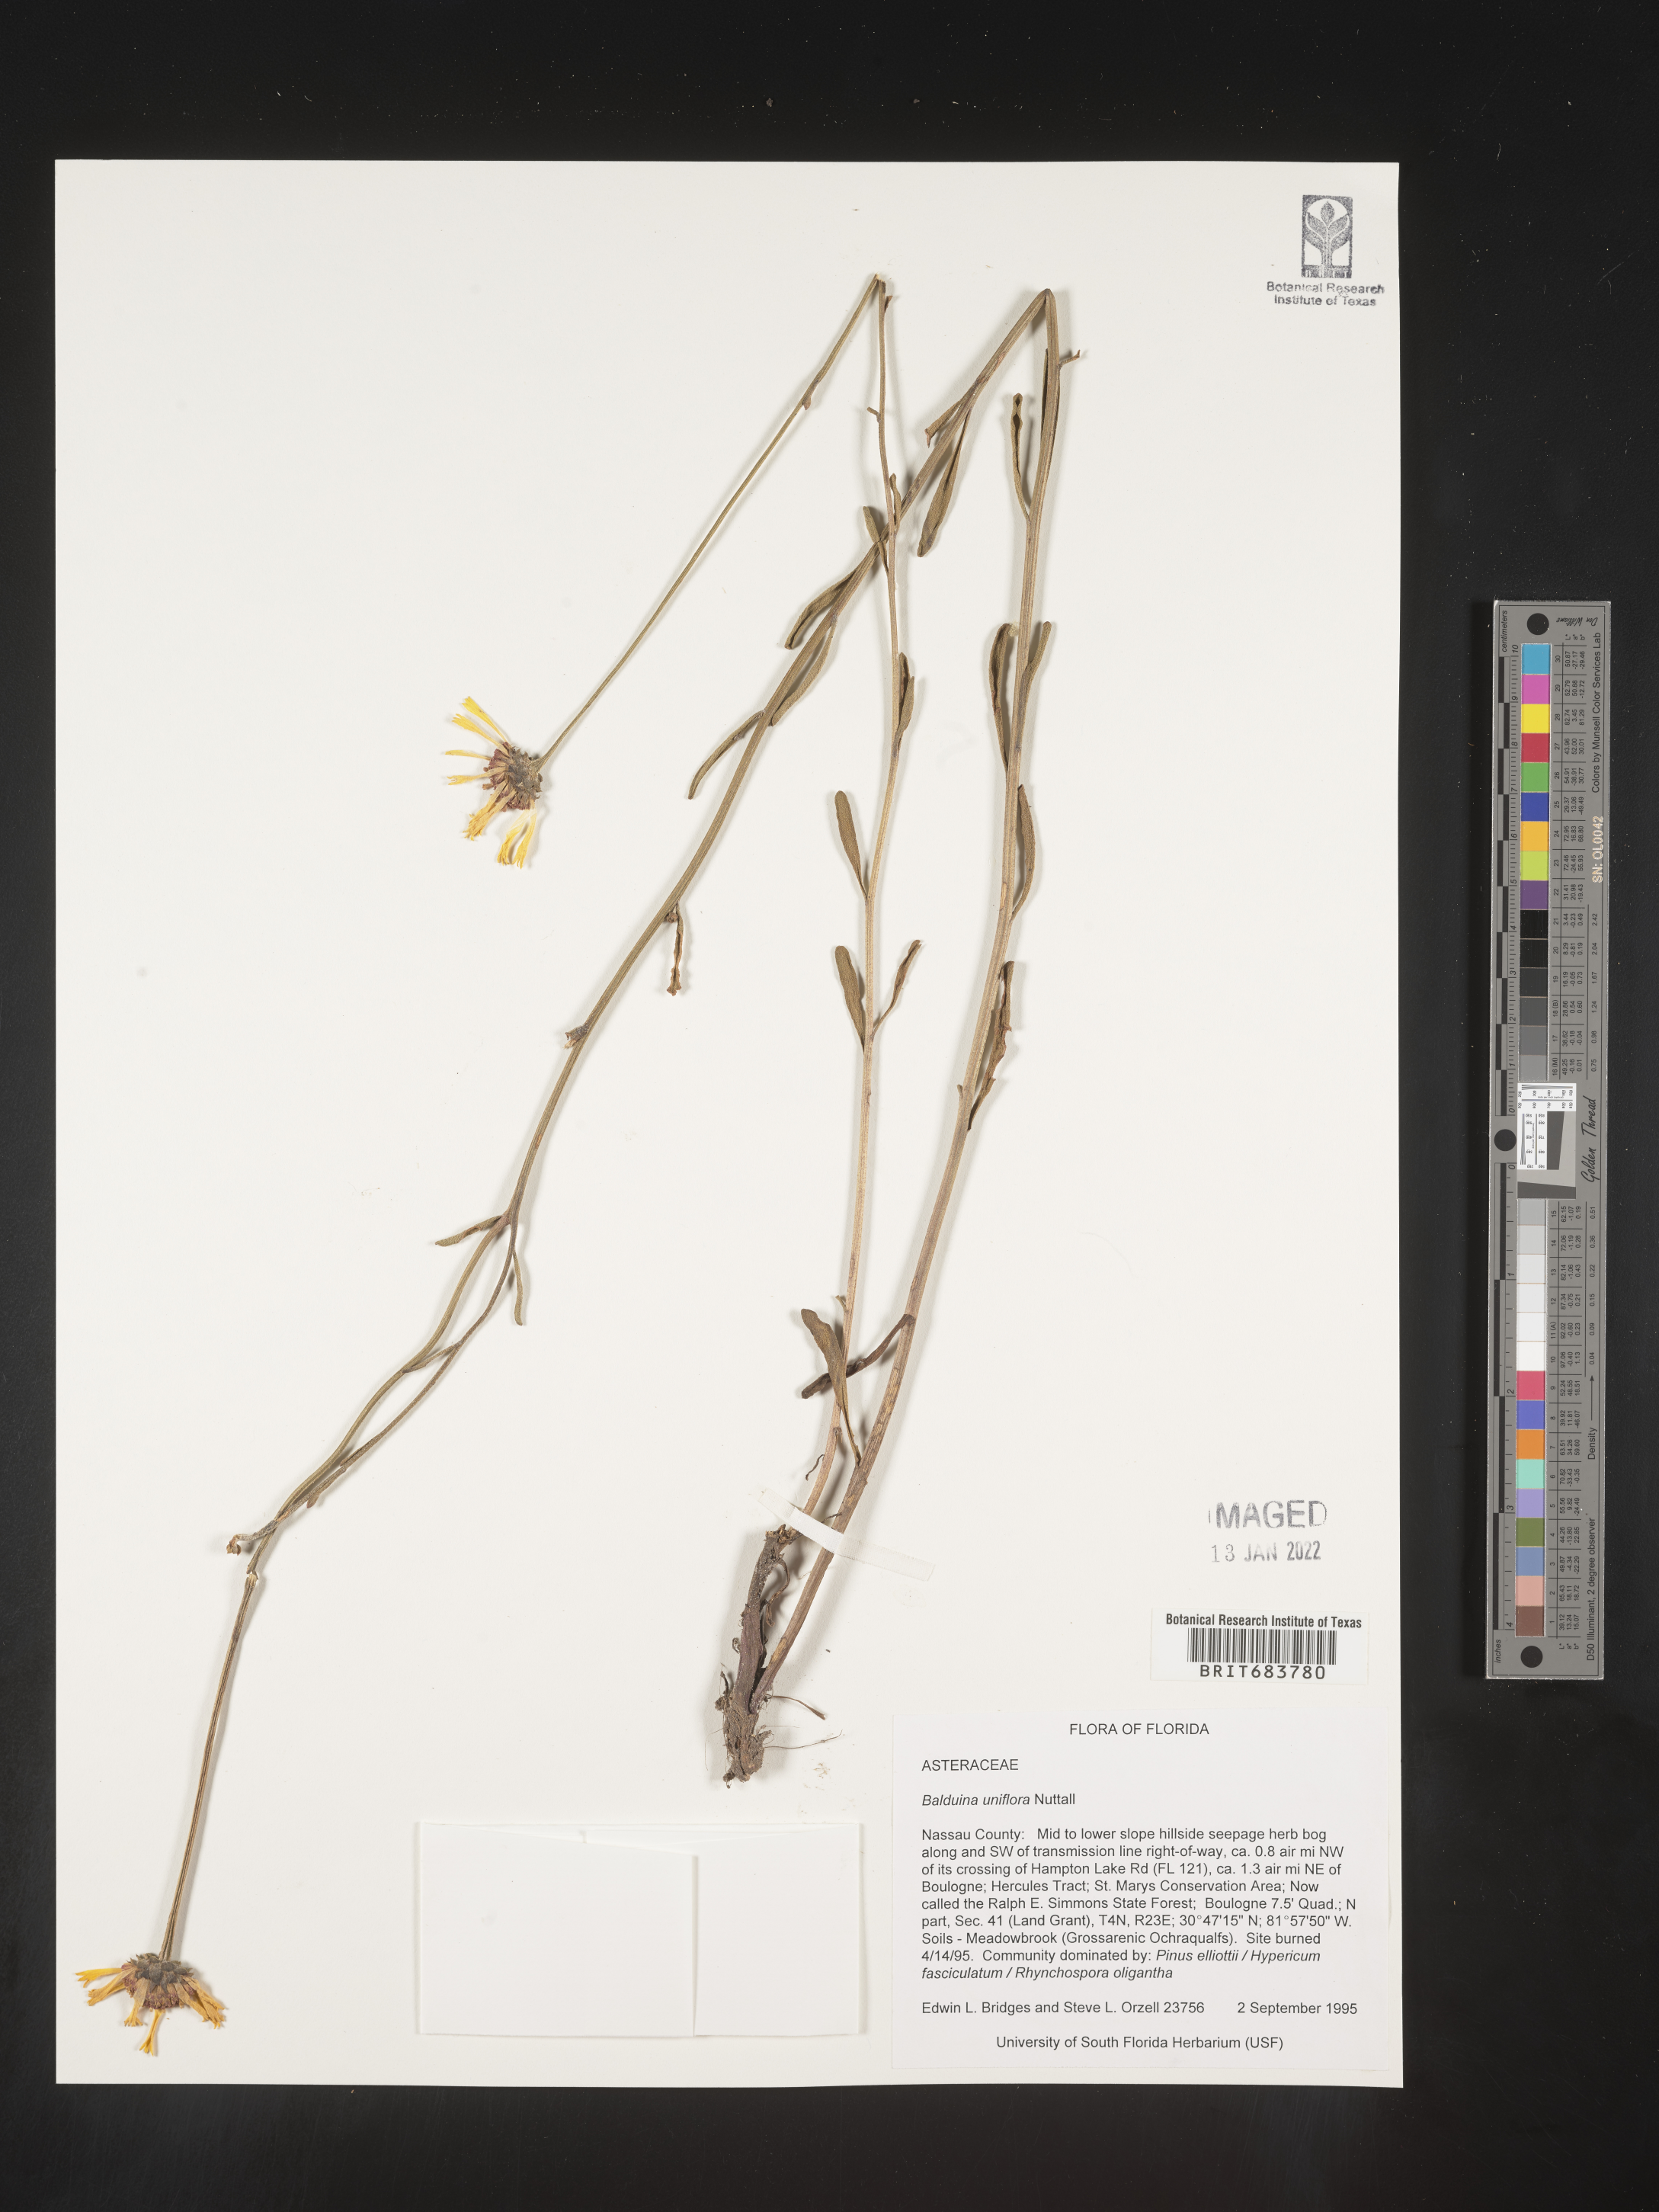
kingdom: Plantae
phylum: Tracheophyta
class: Magnoliopsida
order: Asterales
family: Asteraceae
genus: Balduina
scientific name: Balduina uniflora
